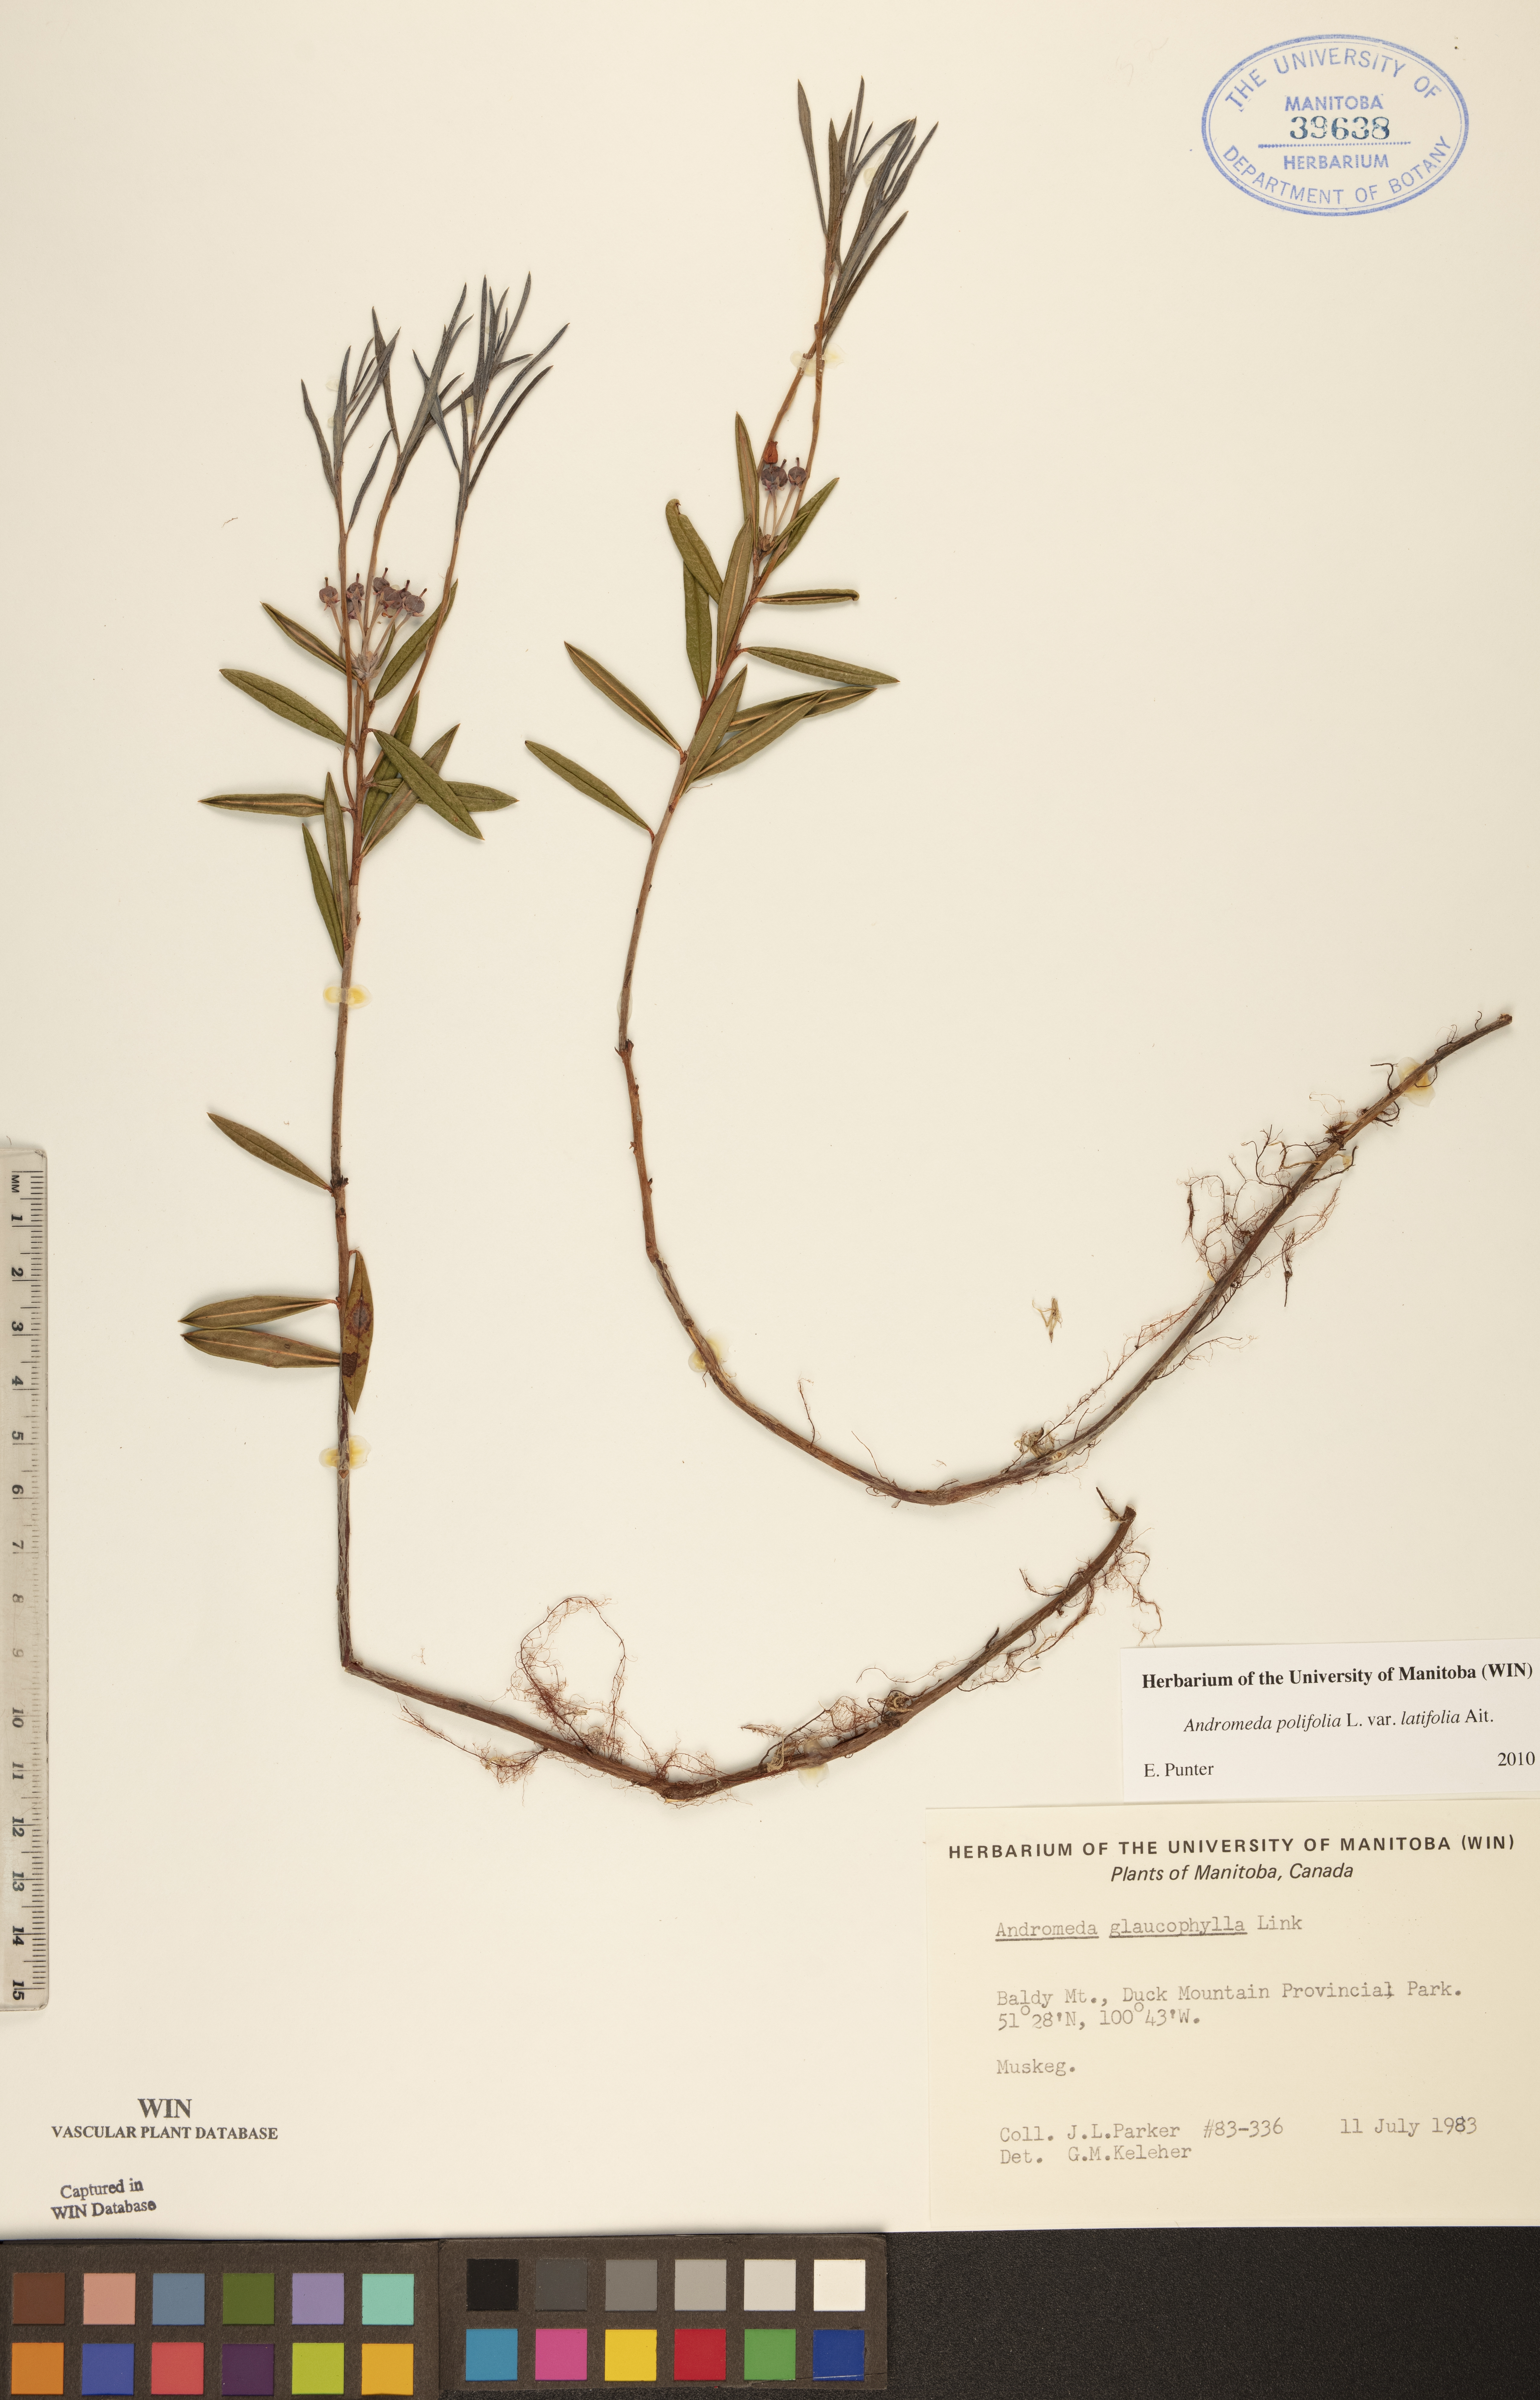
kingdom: Plantae
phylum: Tracheophyta
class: Magnoliopsida
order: Ericales
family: Ericaceae
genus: Andromeda
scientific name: Andromeda polifolia
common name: Bog-rosemary
